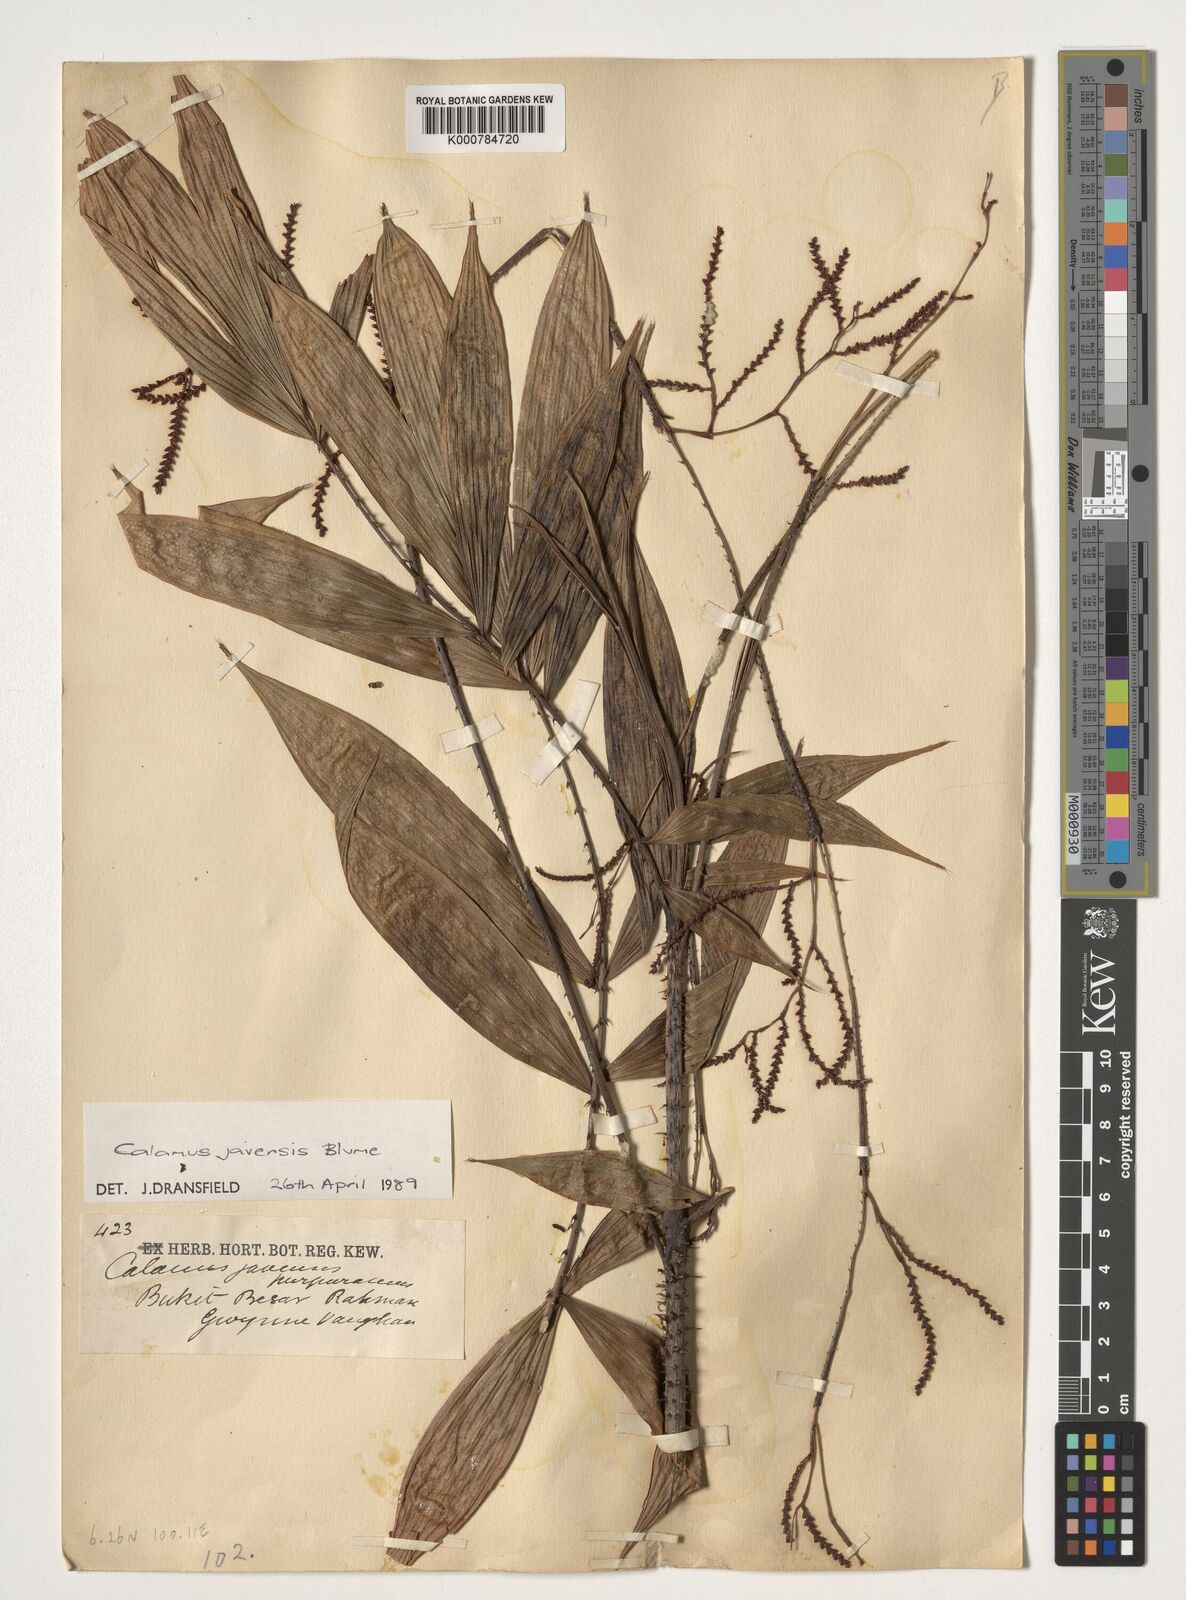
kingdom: Plantae
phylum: Tracheophyta
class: Liliopsida
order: Arecales
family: Arecaceae
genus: Calamus
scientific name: Calamus javensis
